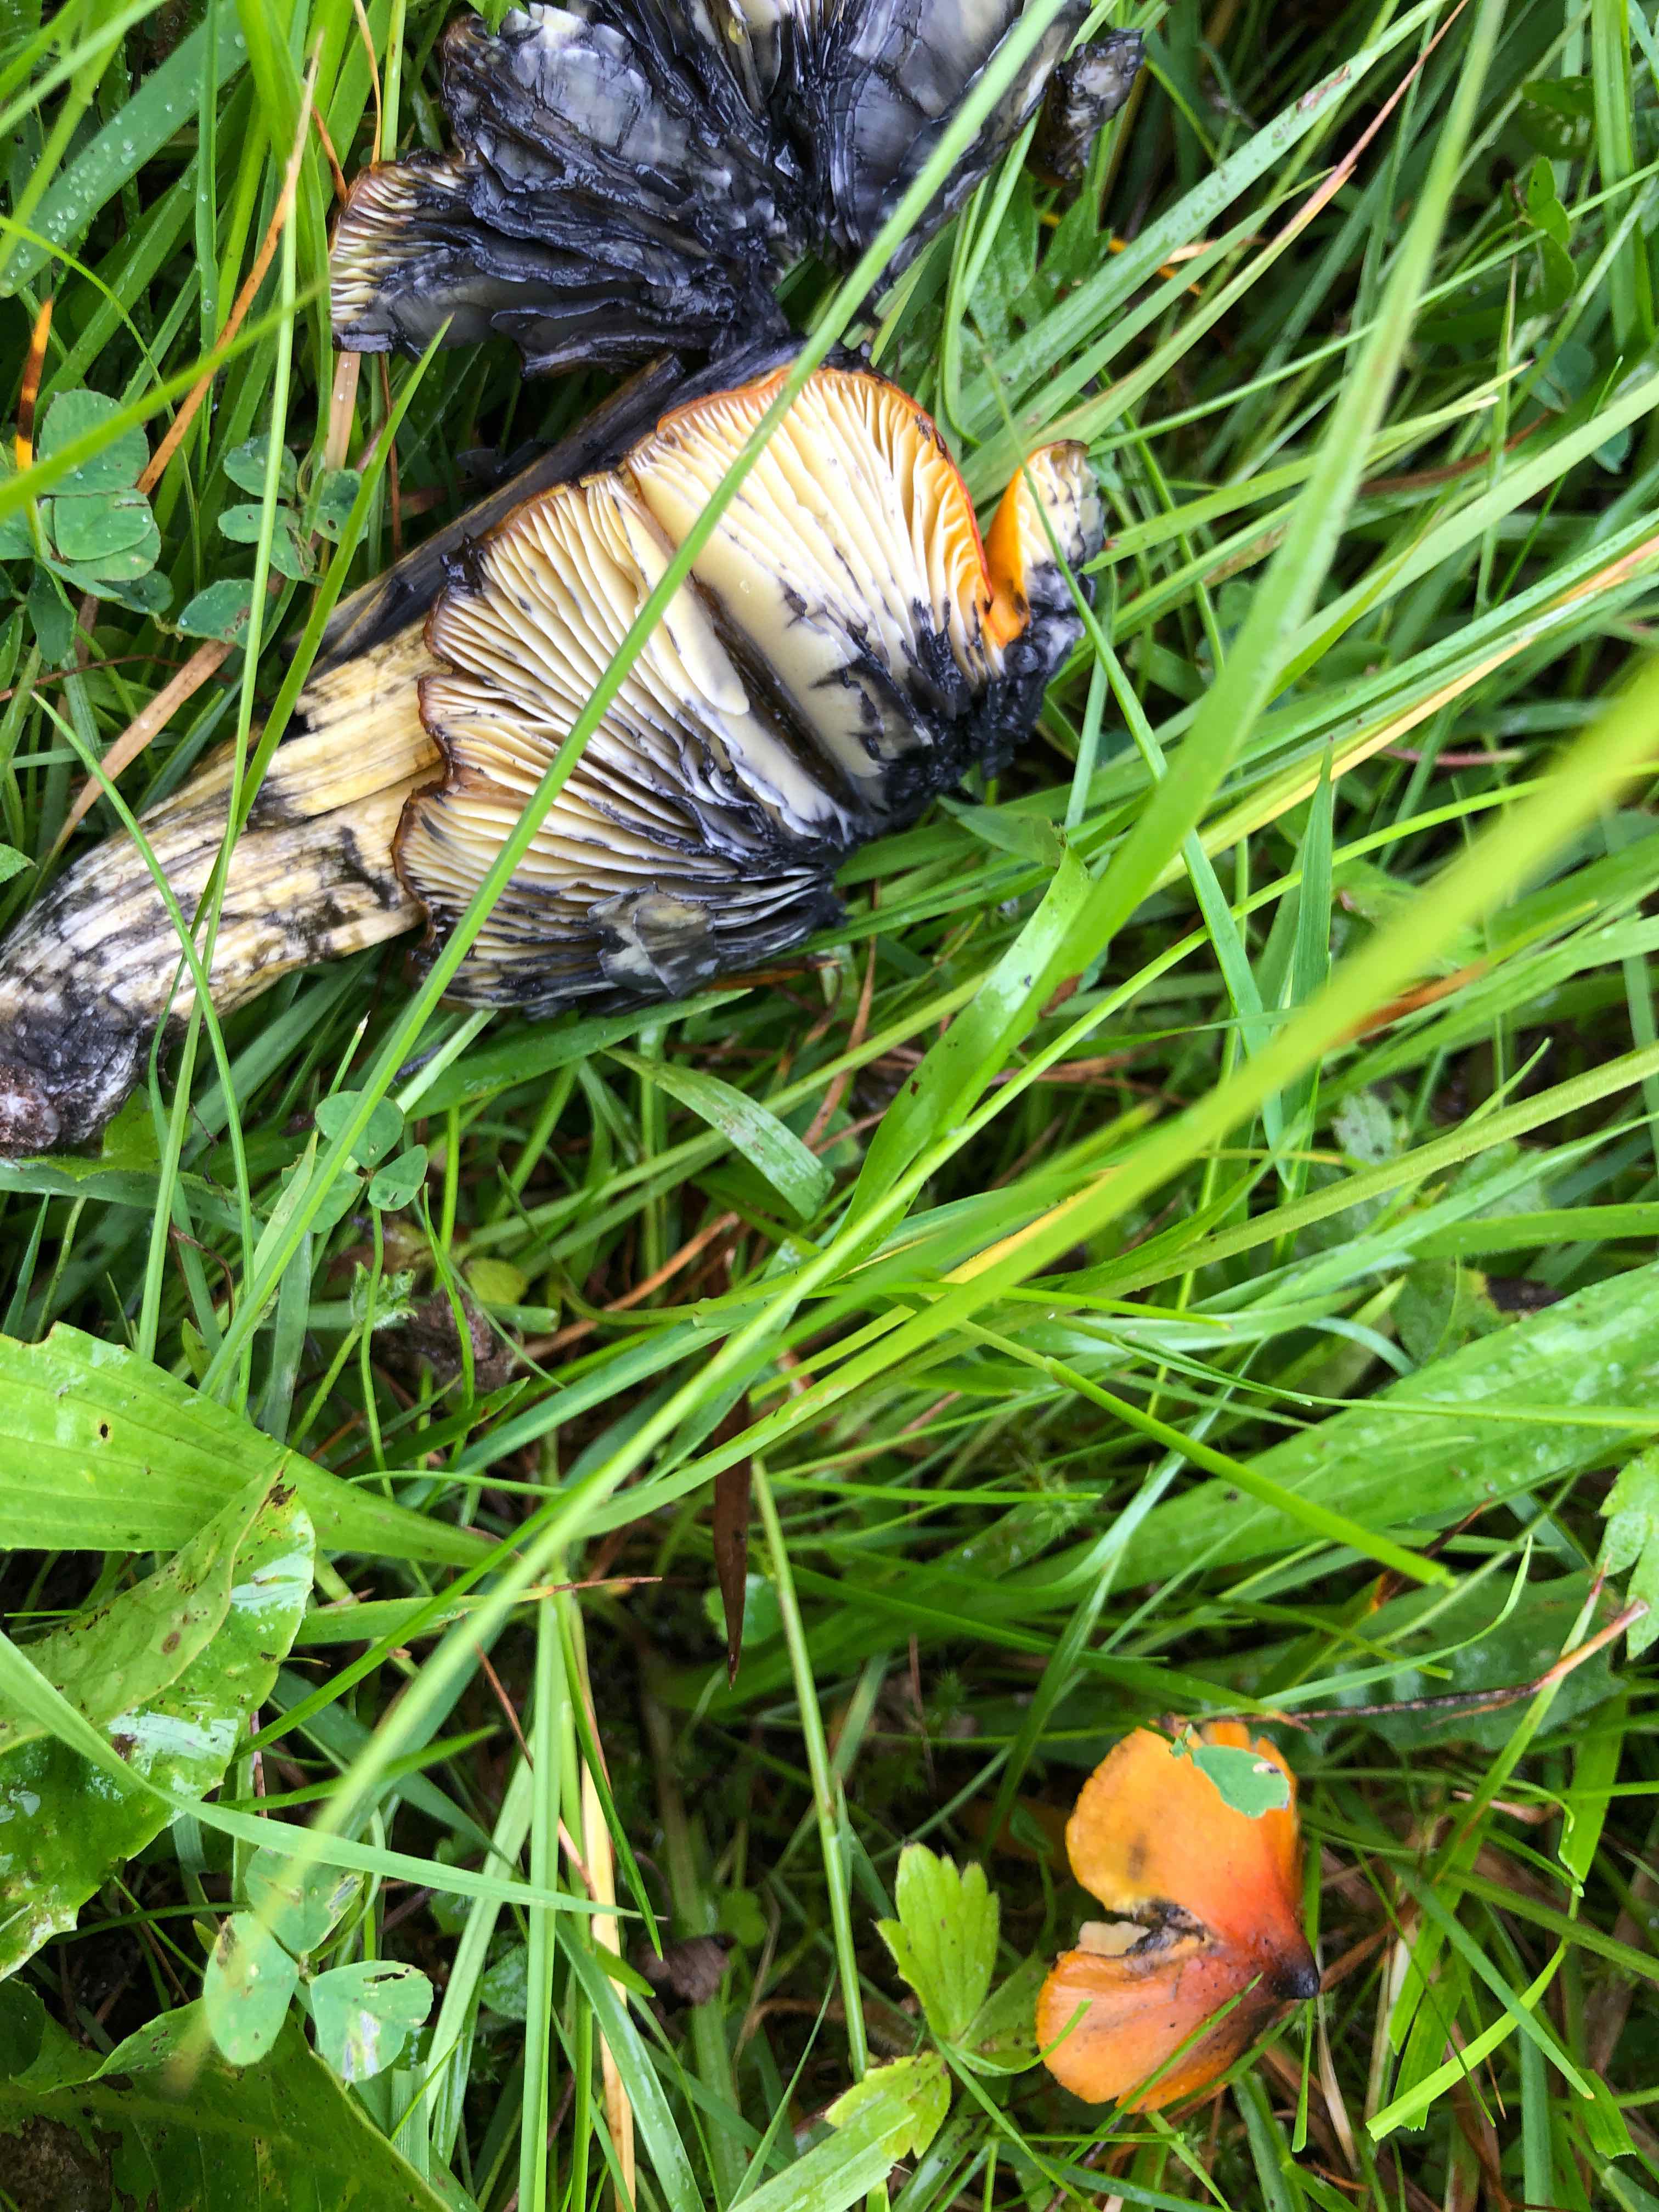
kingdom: Fungi
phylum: Basidiomycota
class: Agaricomycetes
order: Agaricales
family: Hygrophoraceae
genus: Hygrocybe
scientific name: Hygrocybe conica
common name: kegle-vokshat
